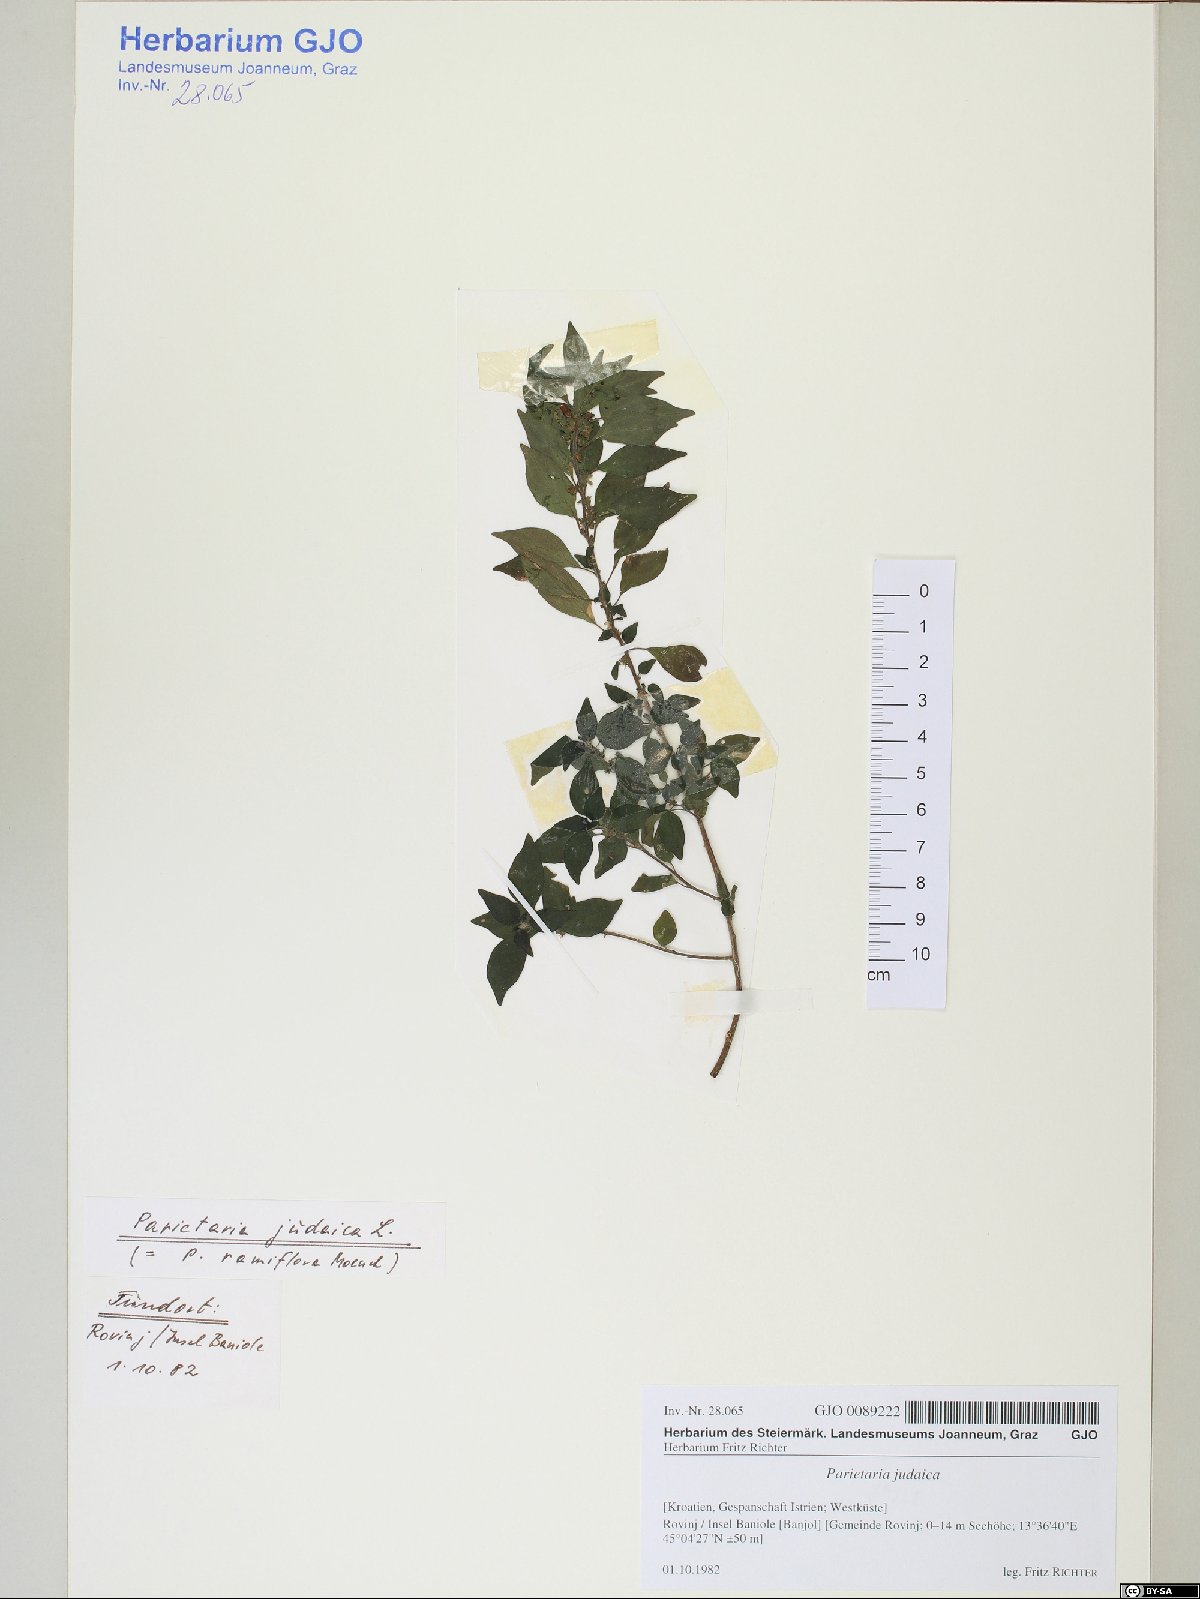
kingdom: Plantae
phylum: Tracheophyta
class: Magnoliopsida
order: Rosales
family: Urticaceae
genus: Parietaria
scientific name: Parietaria judaica
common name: Pellitory-of-the-wall
